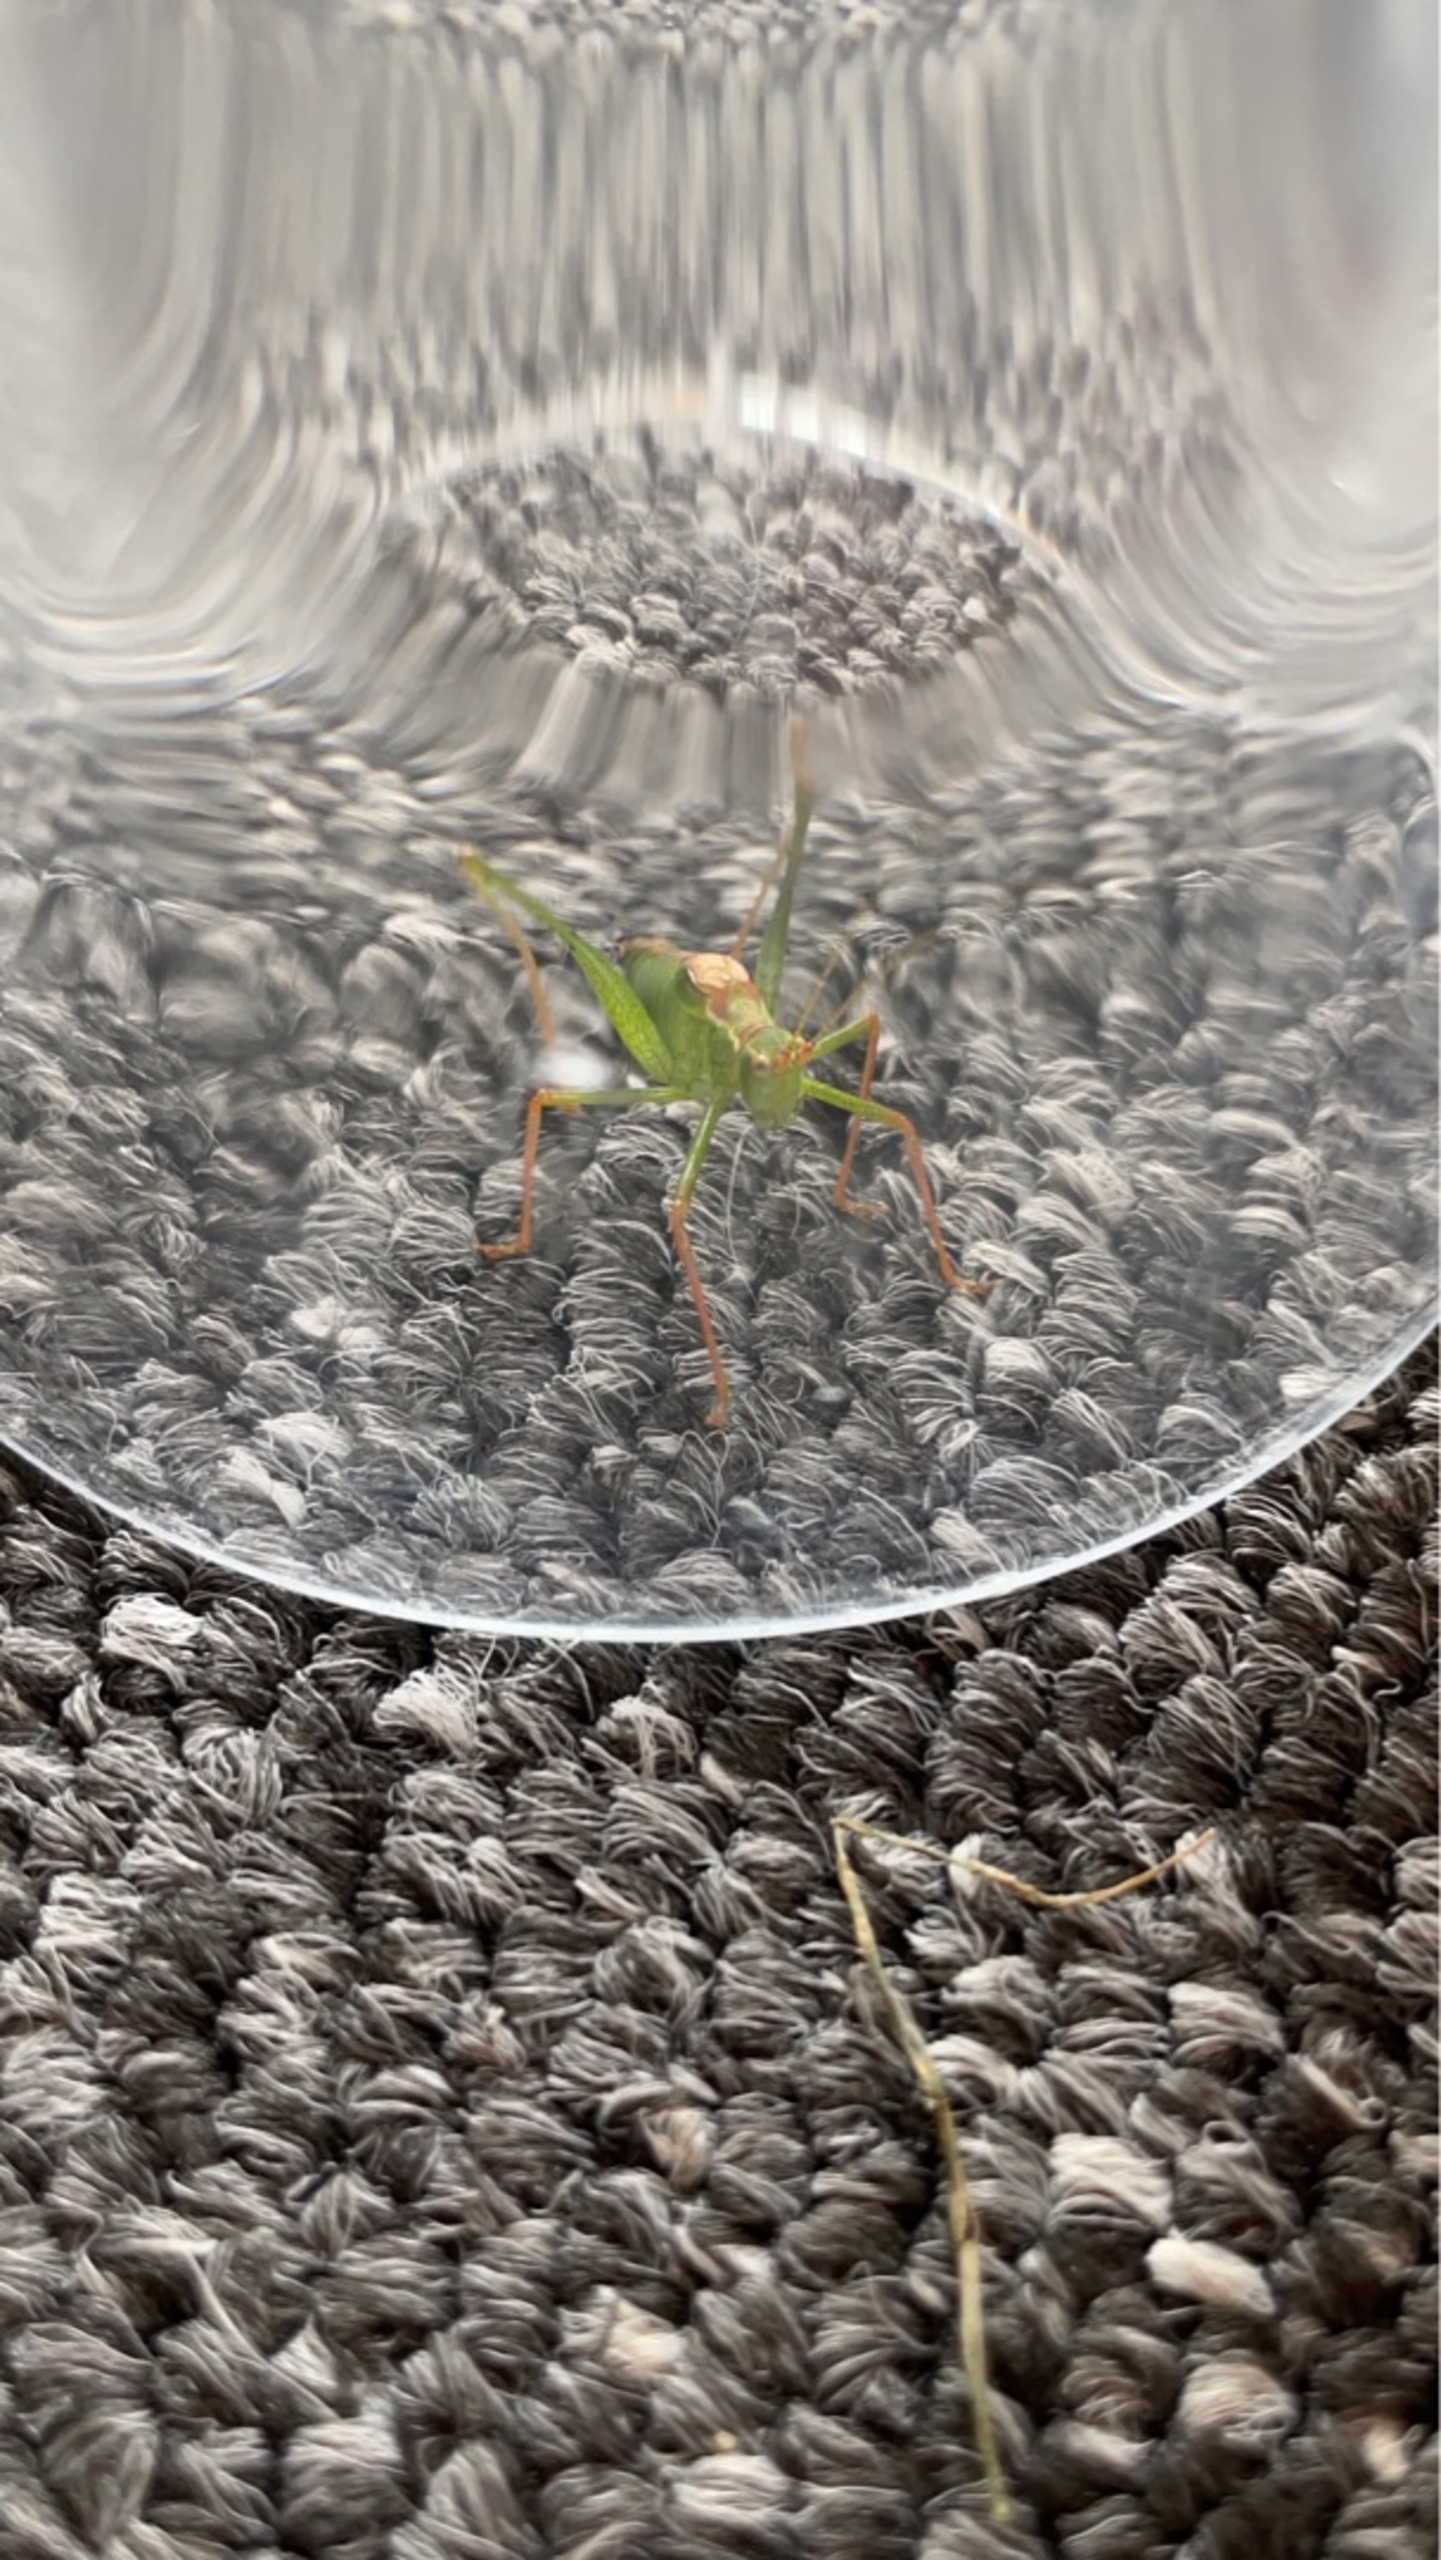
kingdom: Animalia
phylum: Arthropoda
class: Insecta
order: Orthoptera
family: Tettigoniidae
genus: Leptophyes
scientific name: Leptophyes punctatissima
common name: Krumknivgræshoppe
